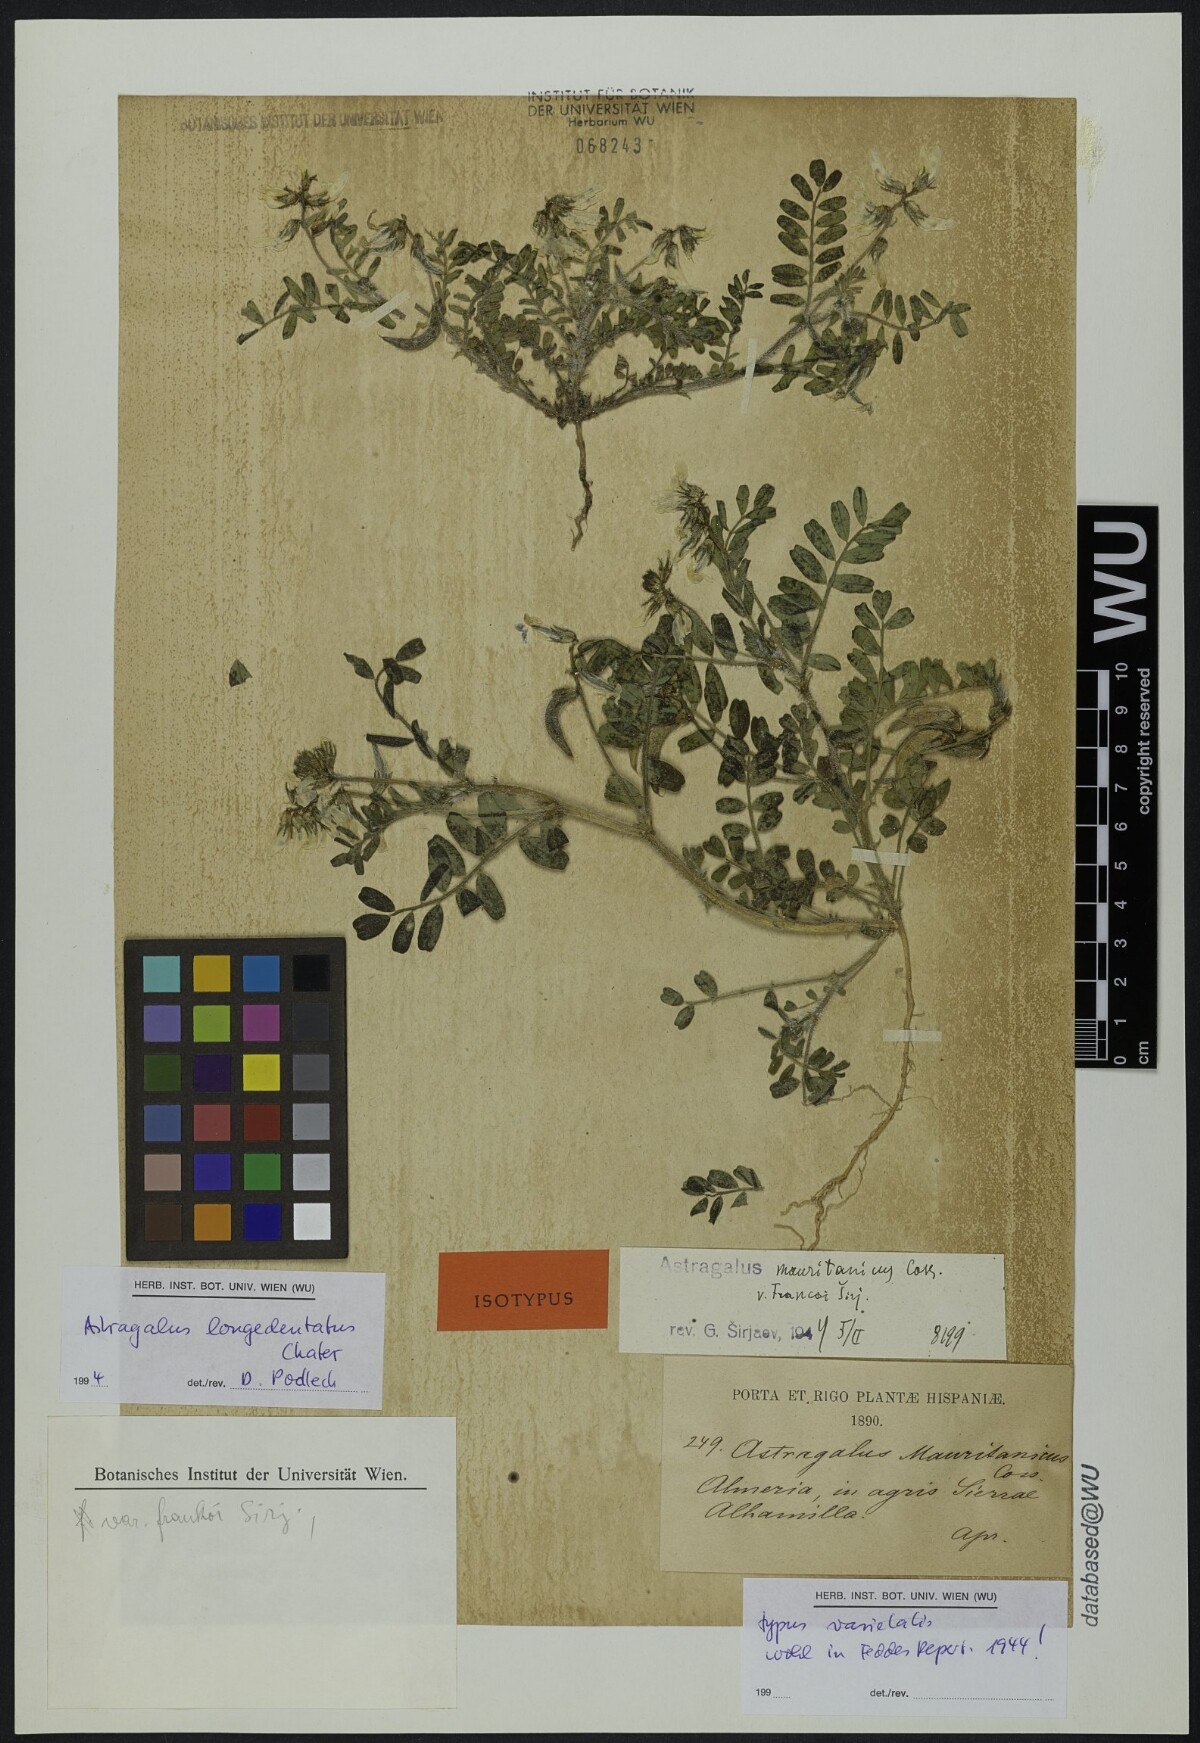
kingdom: Plantae
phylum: Tracheophyta
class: Magnoliopsida
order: Fabales
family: Fabaceae
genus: Astragalus
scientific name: Astragalus longidentatus
